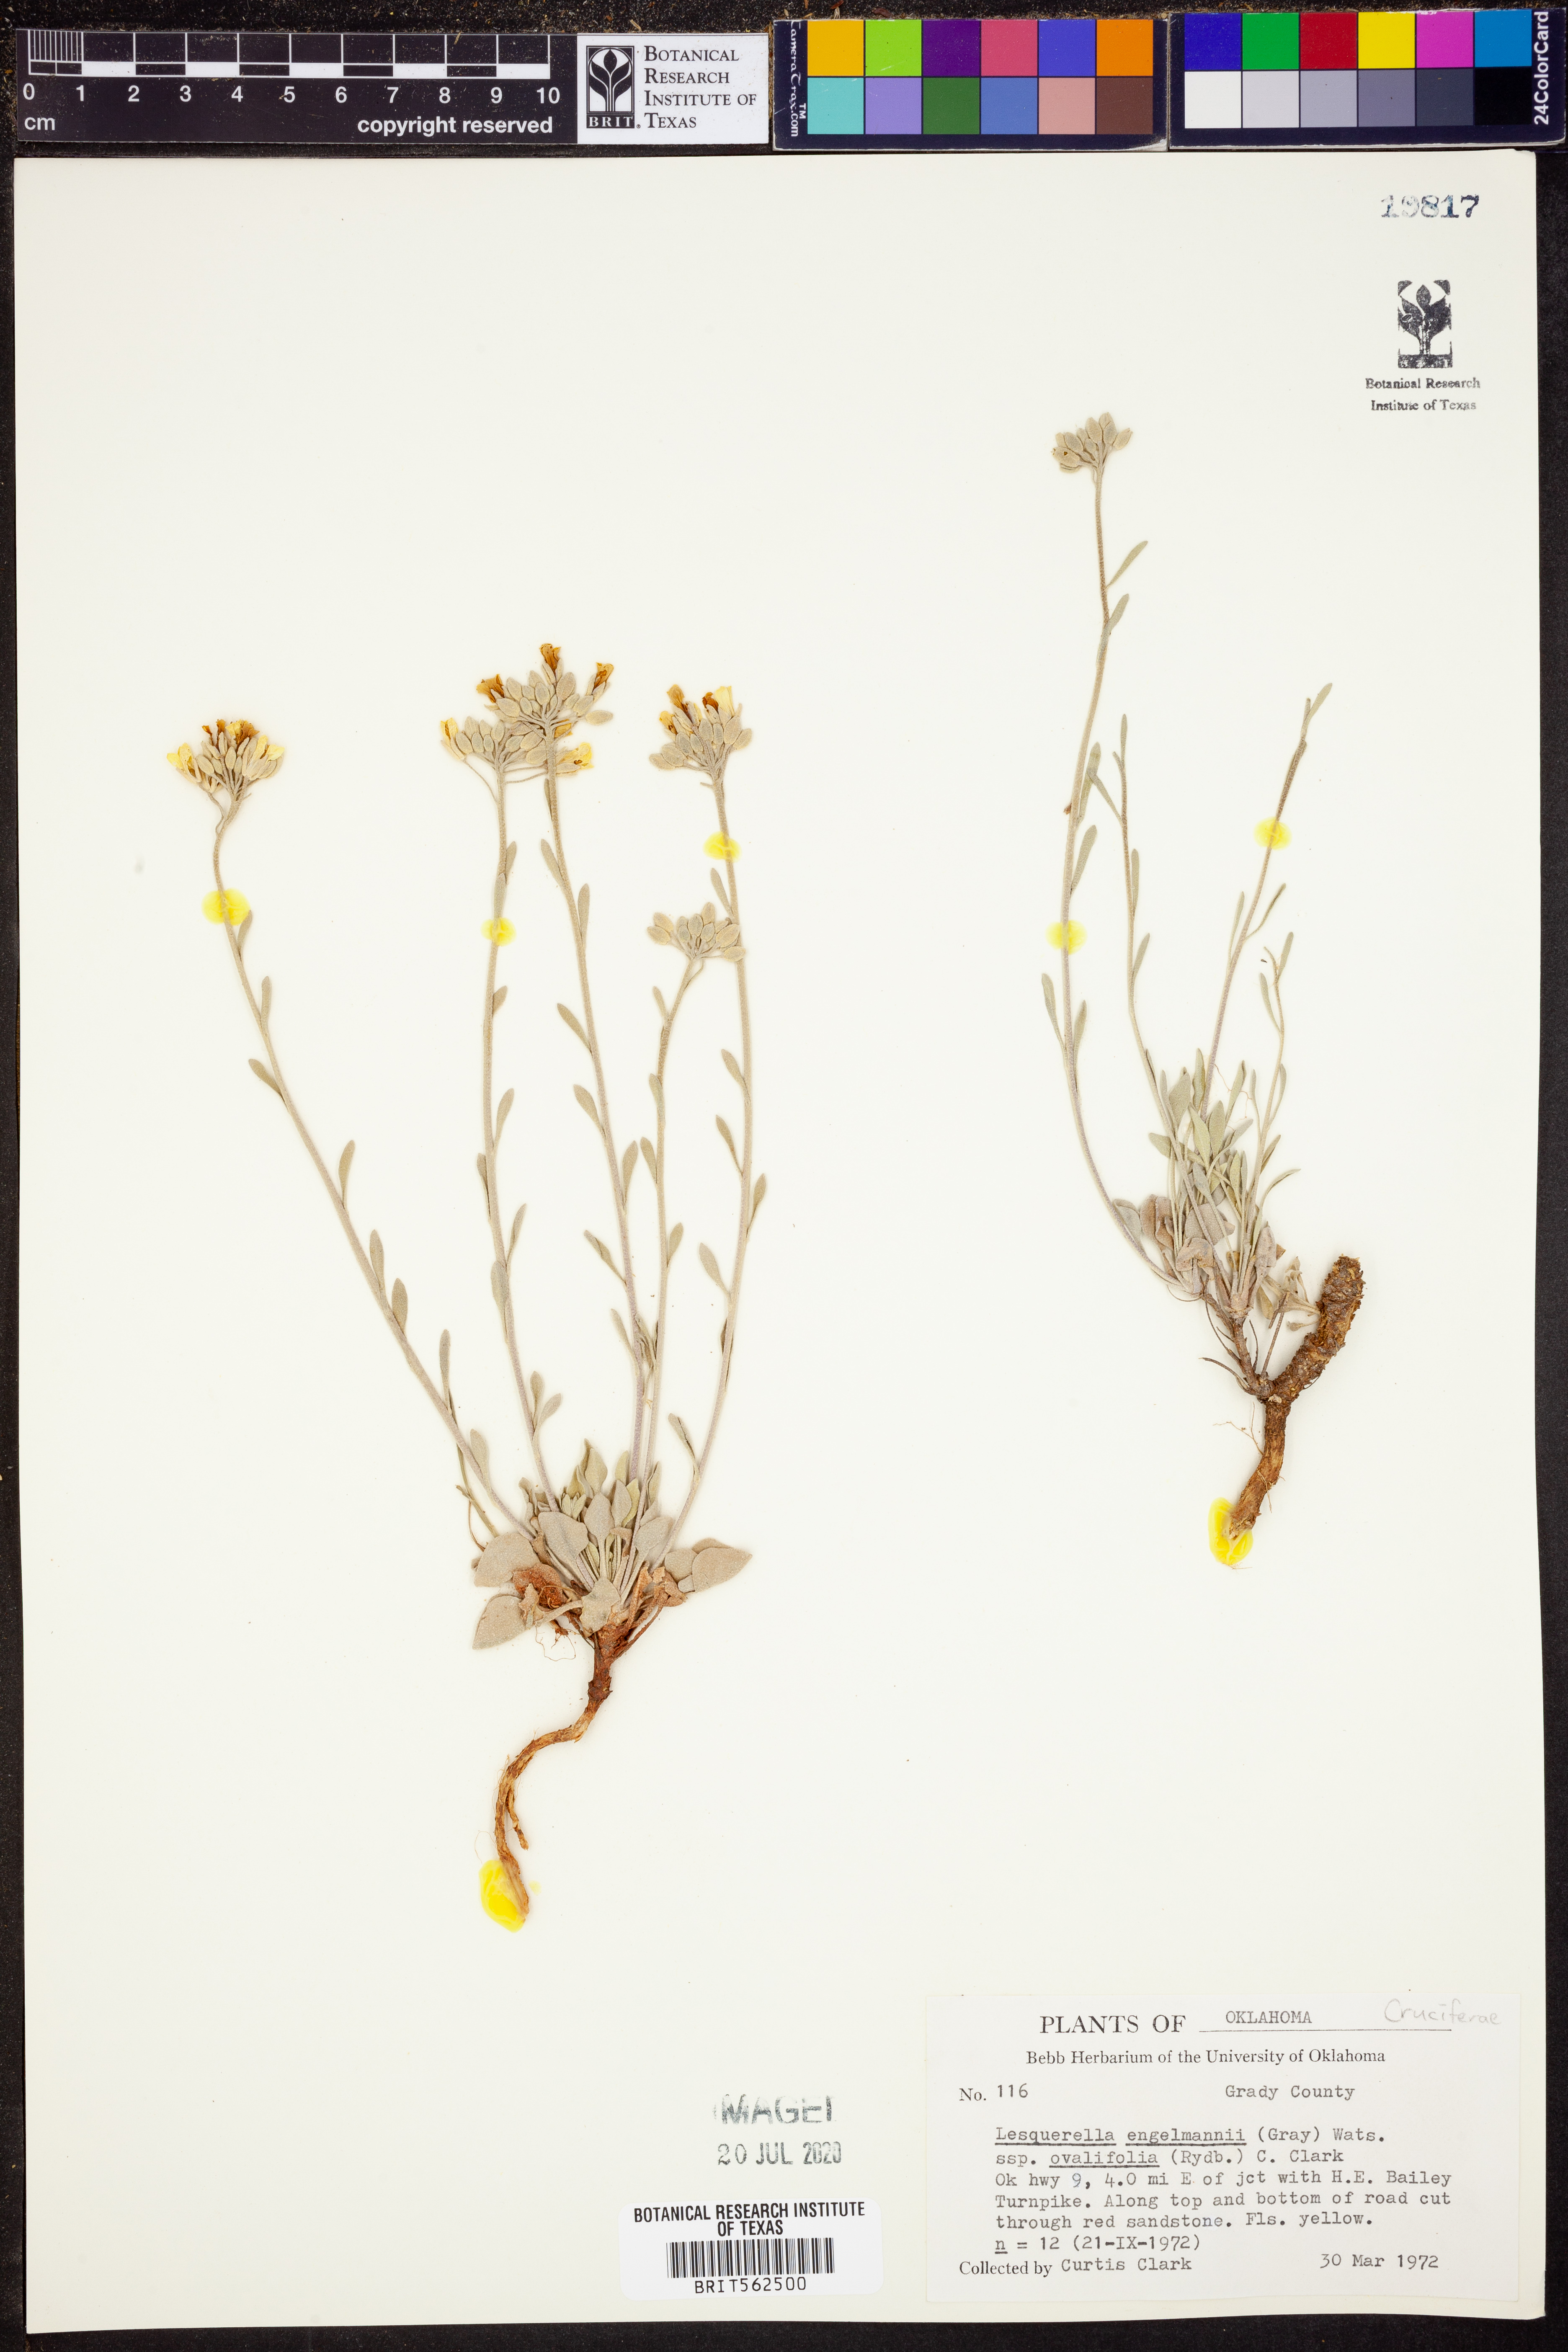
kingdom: Plantae
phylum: Tracheophyta
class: Magnoliopsida
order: Brassicales
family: Brassicaceae
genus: Physaria
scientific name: Physaria ovalifolia
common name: Round-leaf bladderpod
